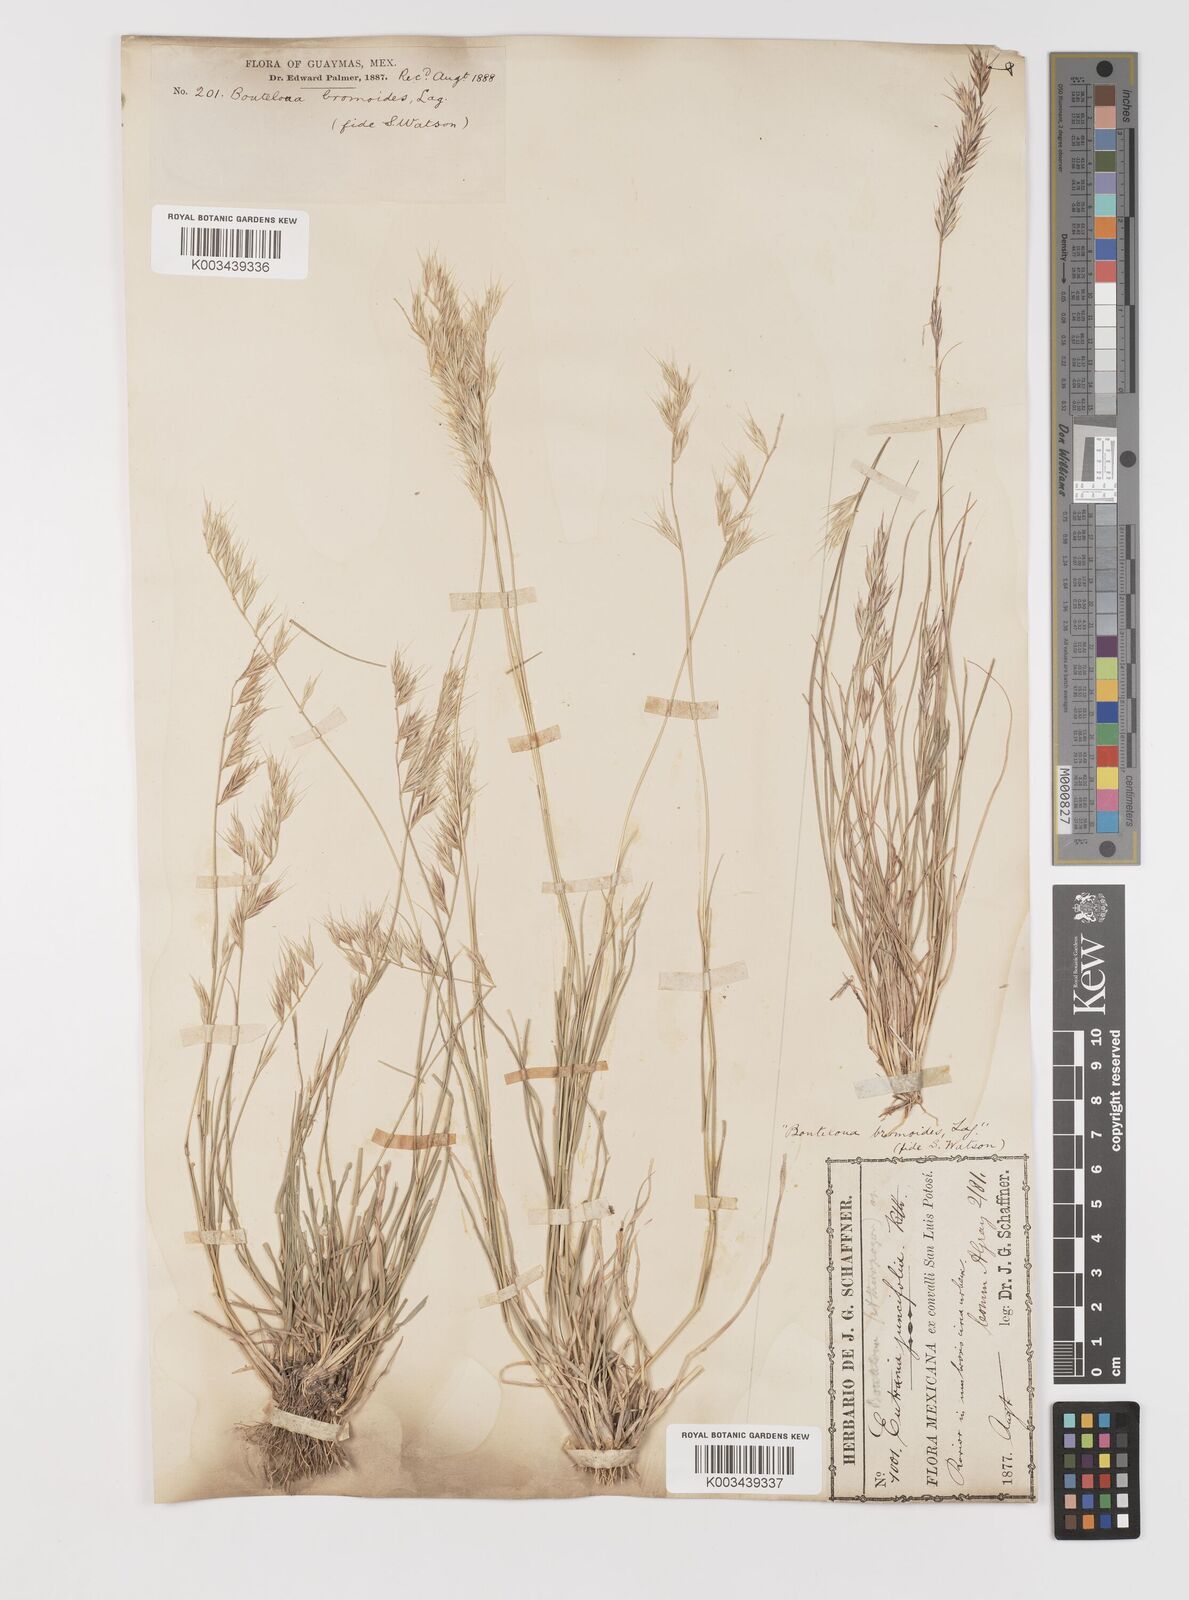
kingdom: Plantae
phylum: Tracheophyta
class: Liliopsida
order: Poales
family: Poaceae
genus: Bouteloua
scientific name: Bouteloua radicosa
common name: Purple grama
